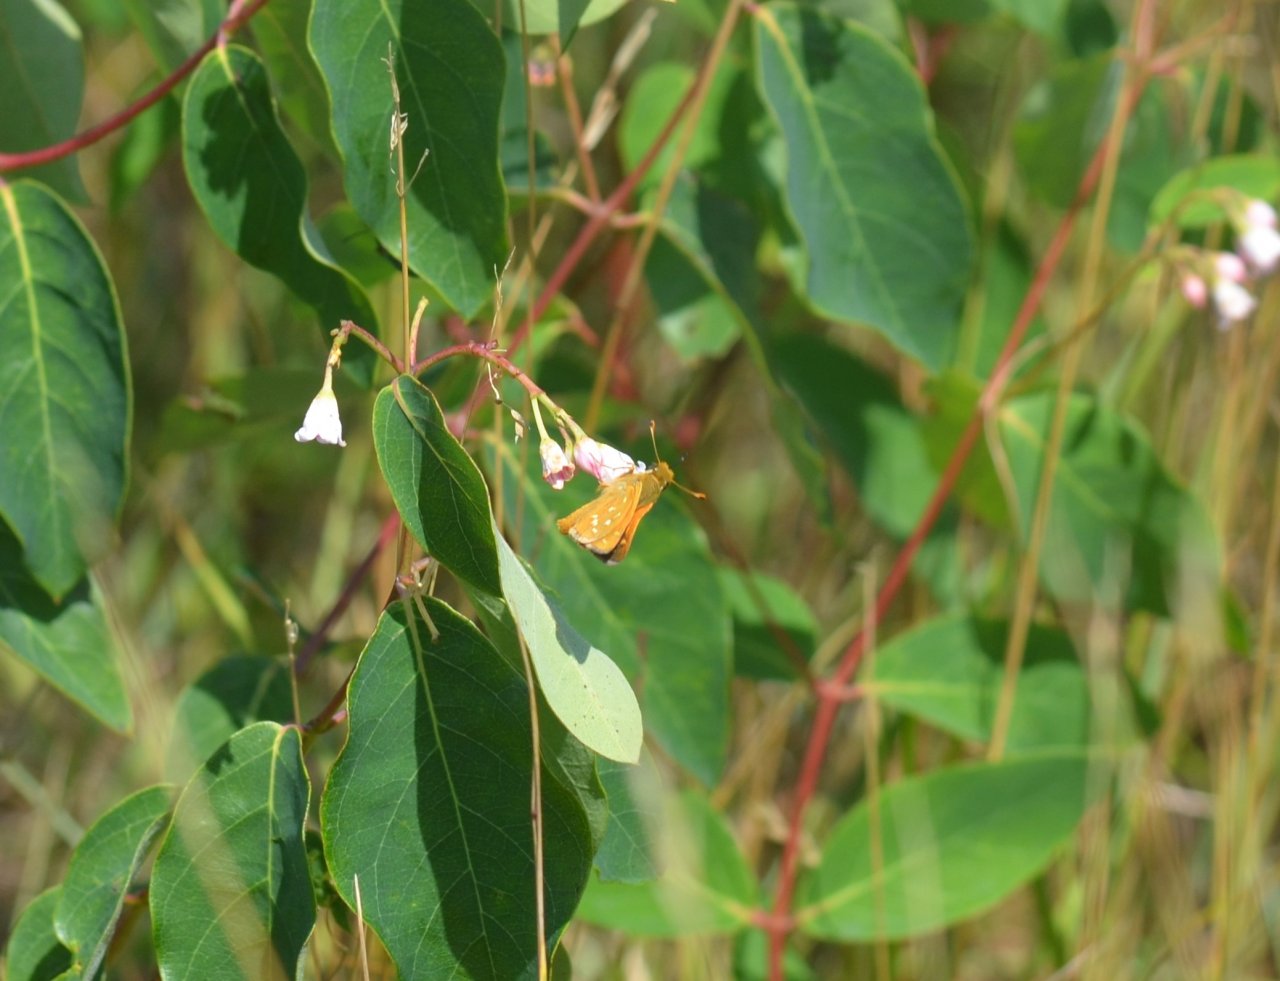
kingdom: Animalia
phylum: Arthropoda
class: Insecta
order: Lepidoptera
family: Hesperiidae
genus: Hesperia
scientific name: Hesperia leonardus
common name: Leonard's Skipper
